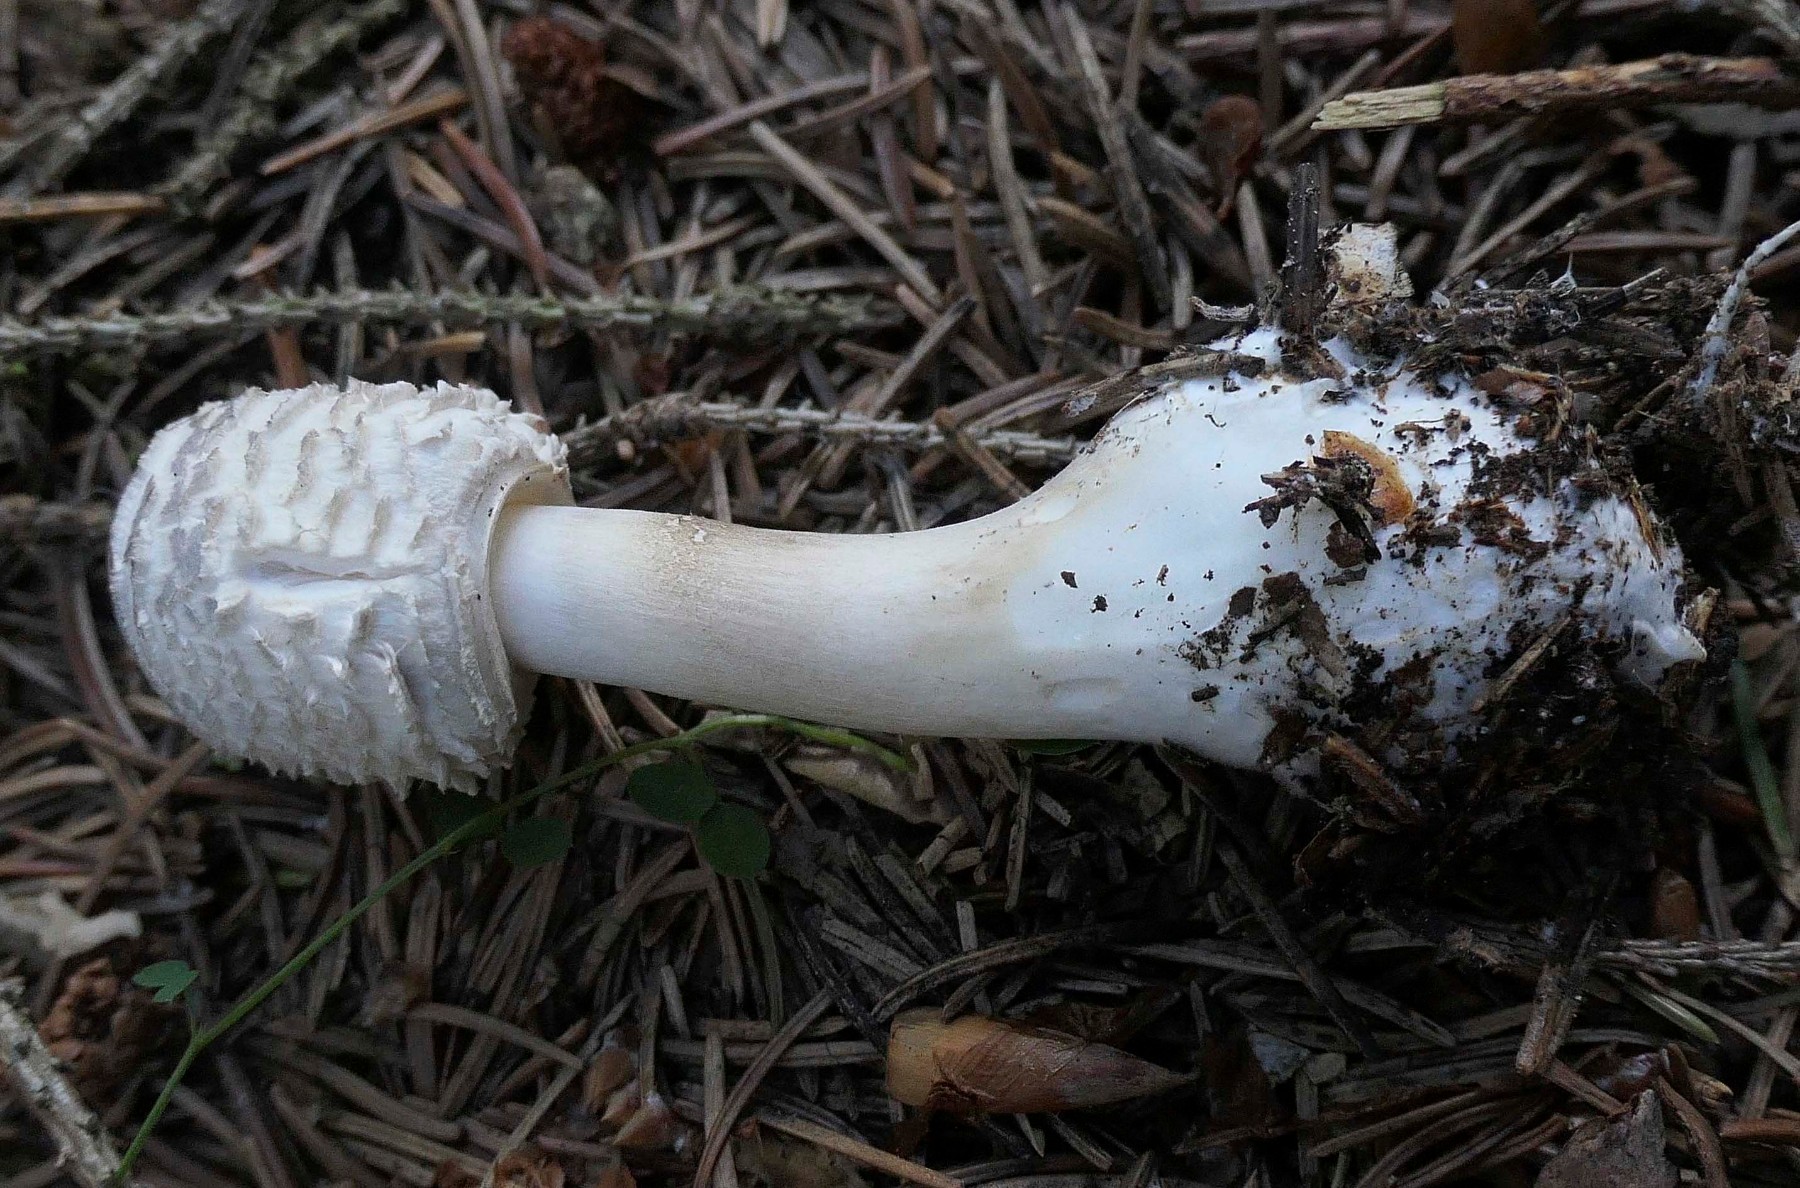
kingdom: Fungi
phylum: Basidiomycota
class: Agaricomycetes
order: Agaricales
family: Agaricaceae
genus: Leucoagaricus
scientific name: Leucoagaricus nympharum
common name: gran-silkehat
